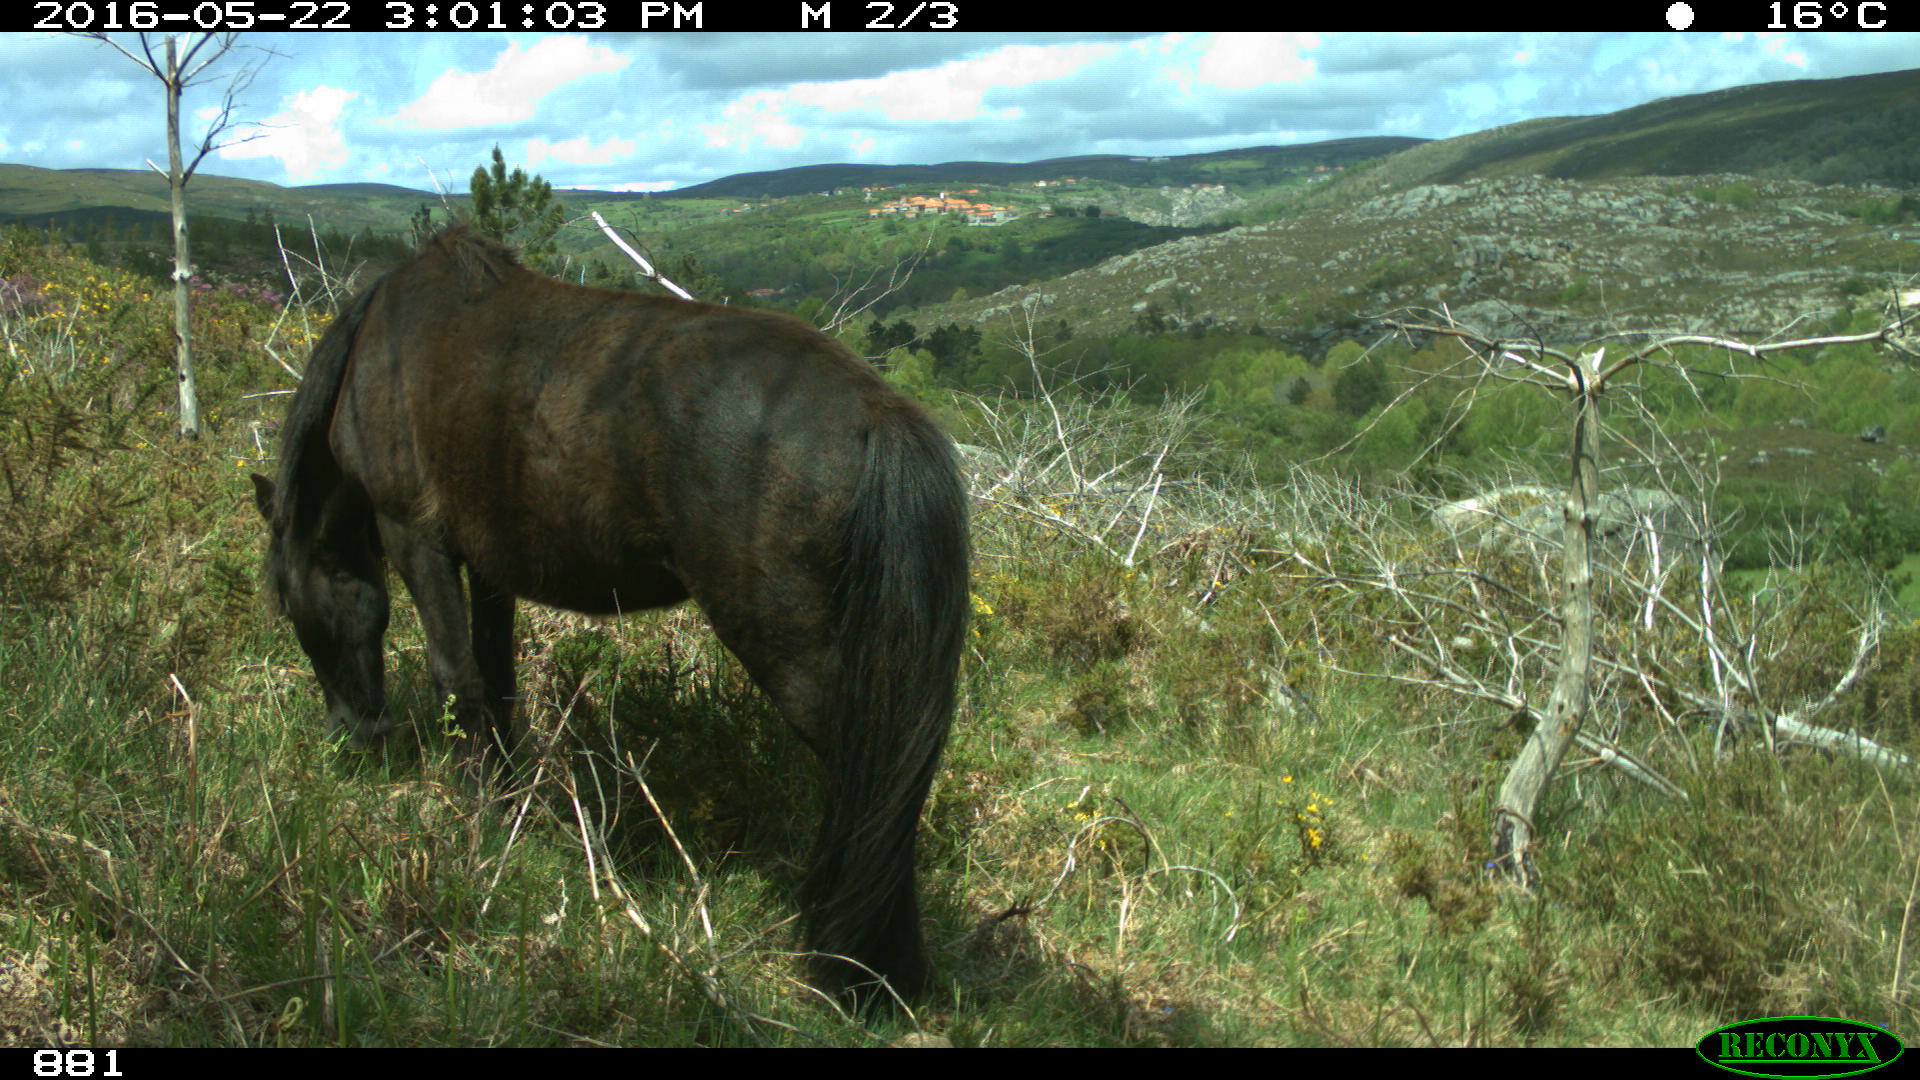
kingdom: Animalia
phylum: Chordata
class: Mammalia
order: Perissodactyla
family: Equidae
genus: Equus
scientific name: Equus caballus
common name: Horse
